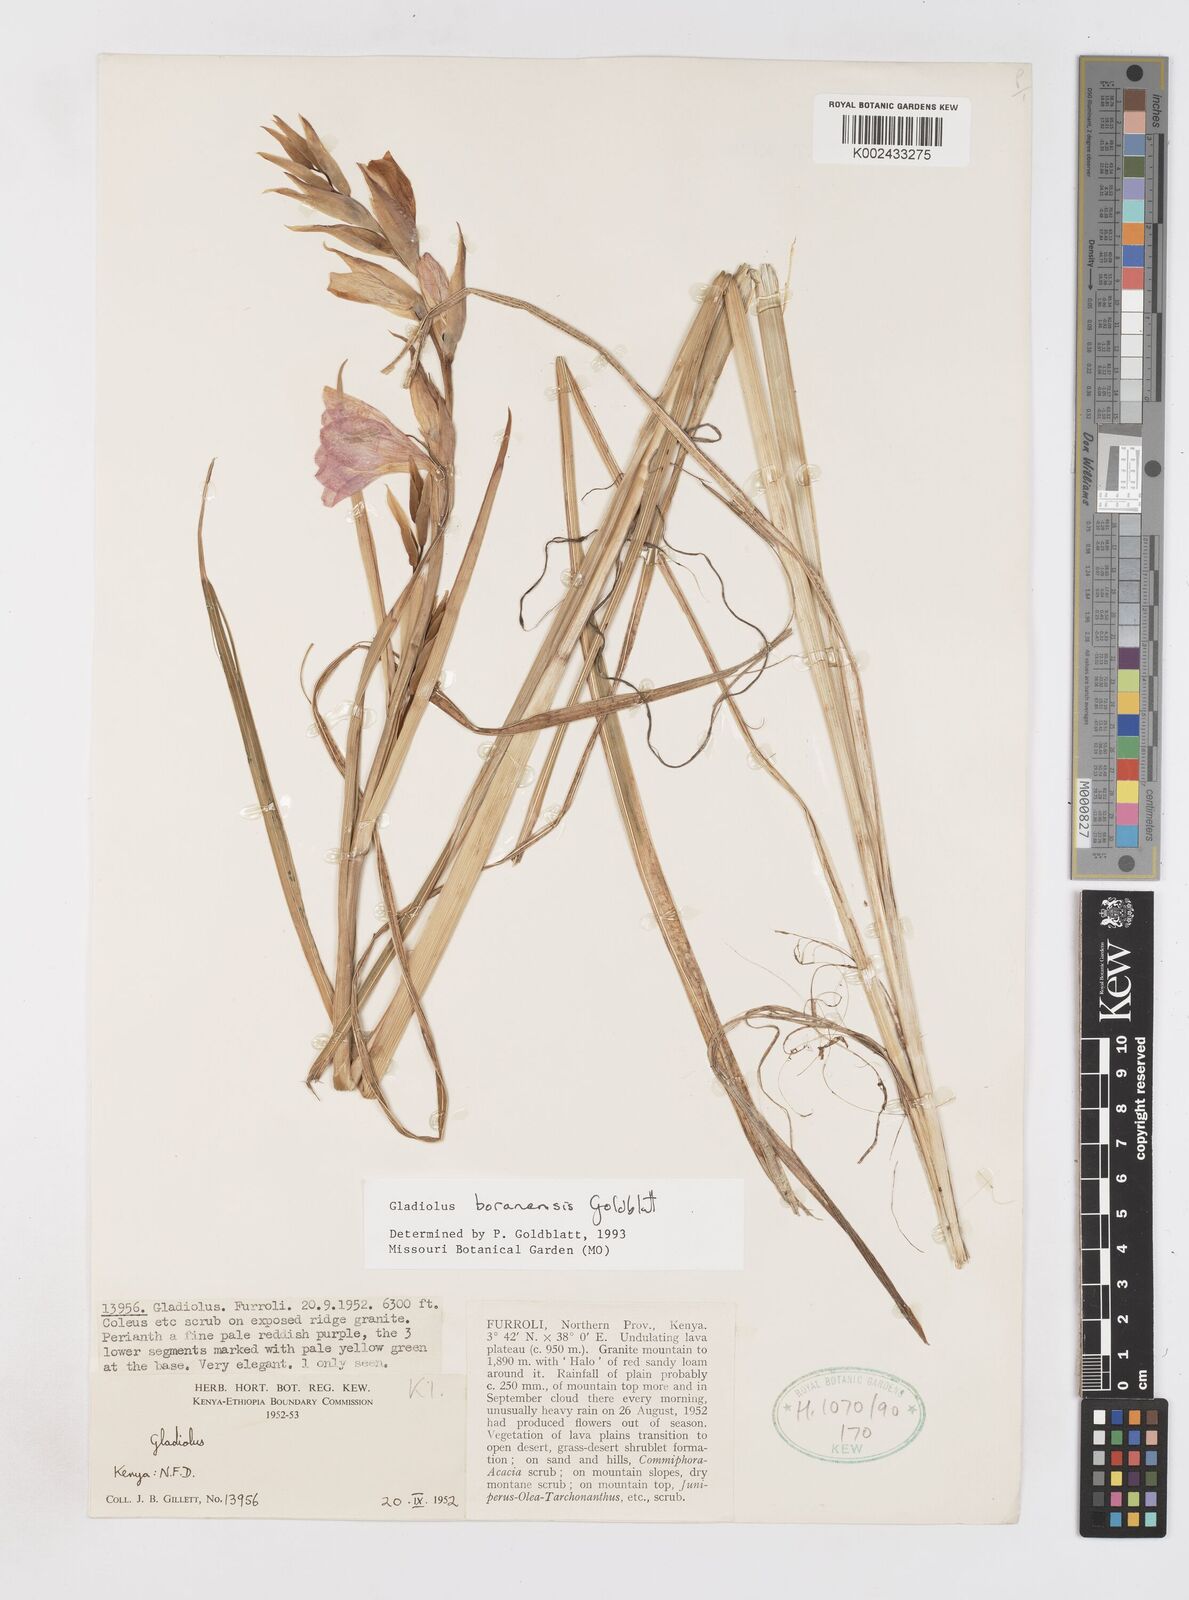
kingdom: Plantae
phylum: Tracheophyta
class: Liliopsida
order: Asparagales
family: Iridaceae
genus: Gladiolus
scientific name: Gladiolus boranensis
